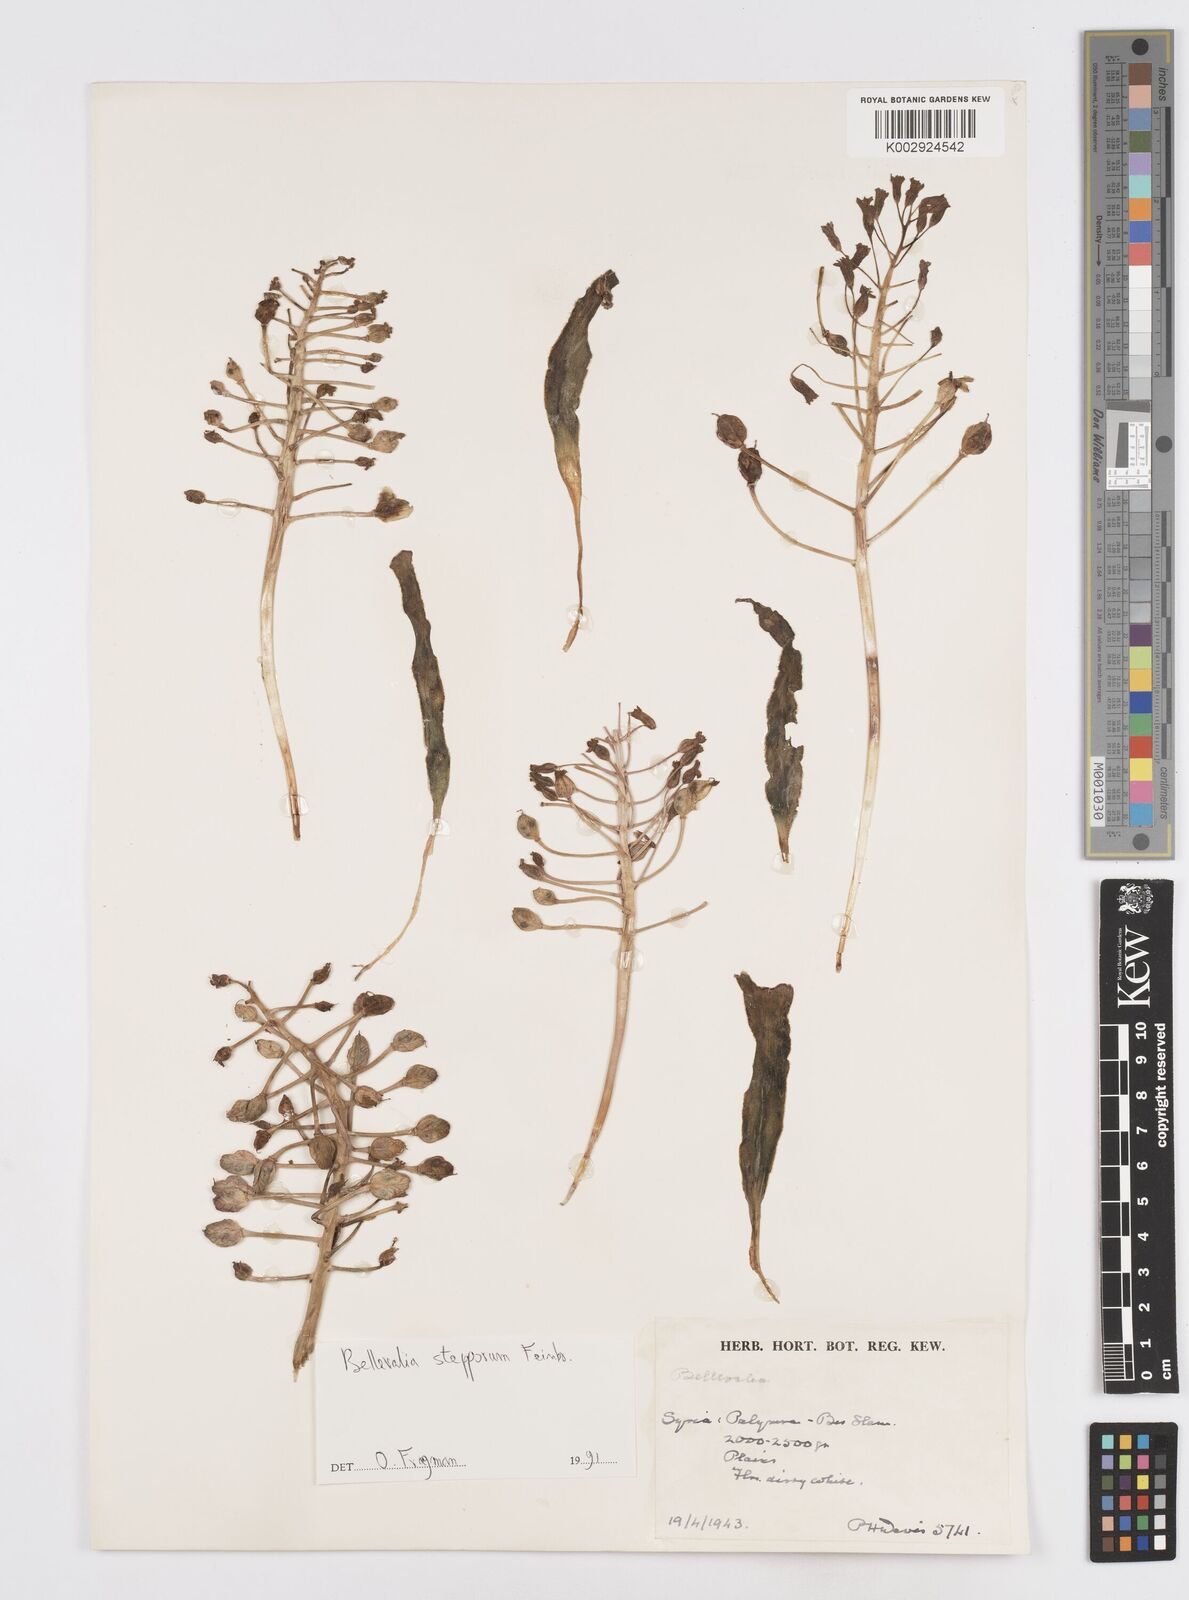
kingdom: Plantae
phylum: Tracheophyta
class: Liliopsida
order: Asparagales
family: Asparagaceae
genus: Bellevalia
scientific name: Bellevalia stepporum
